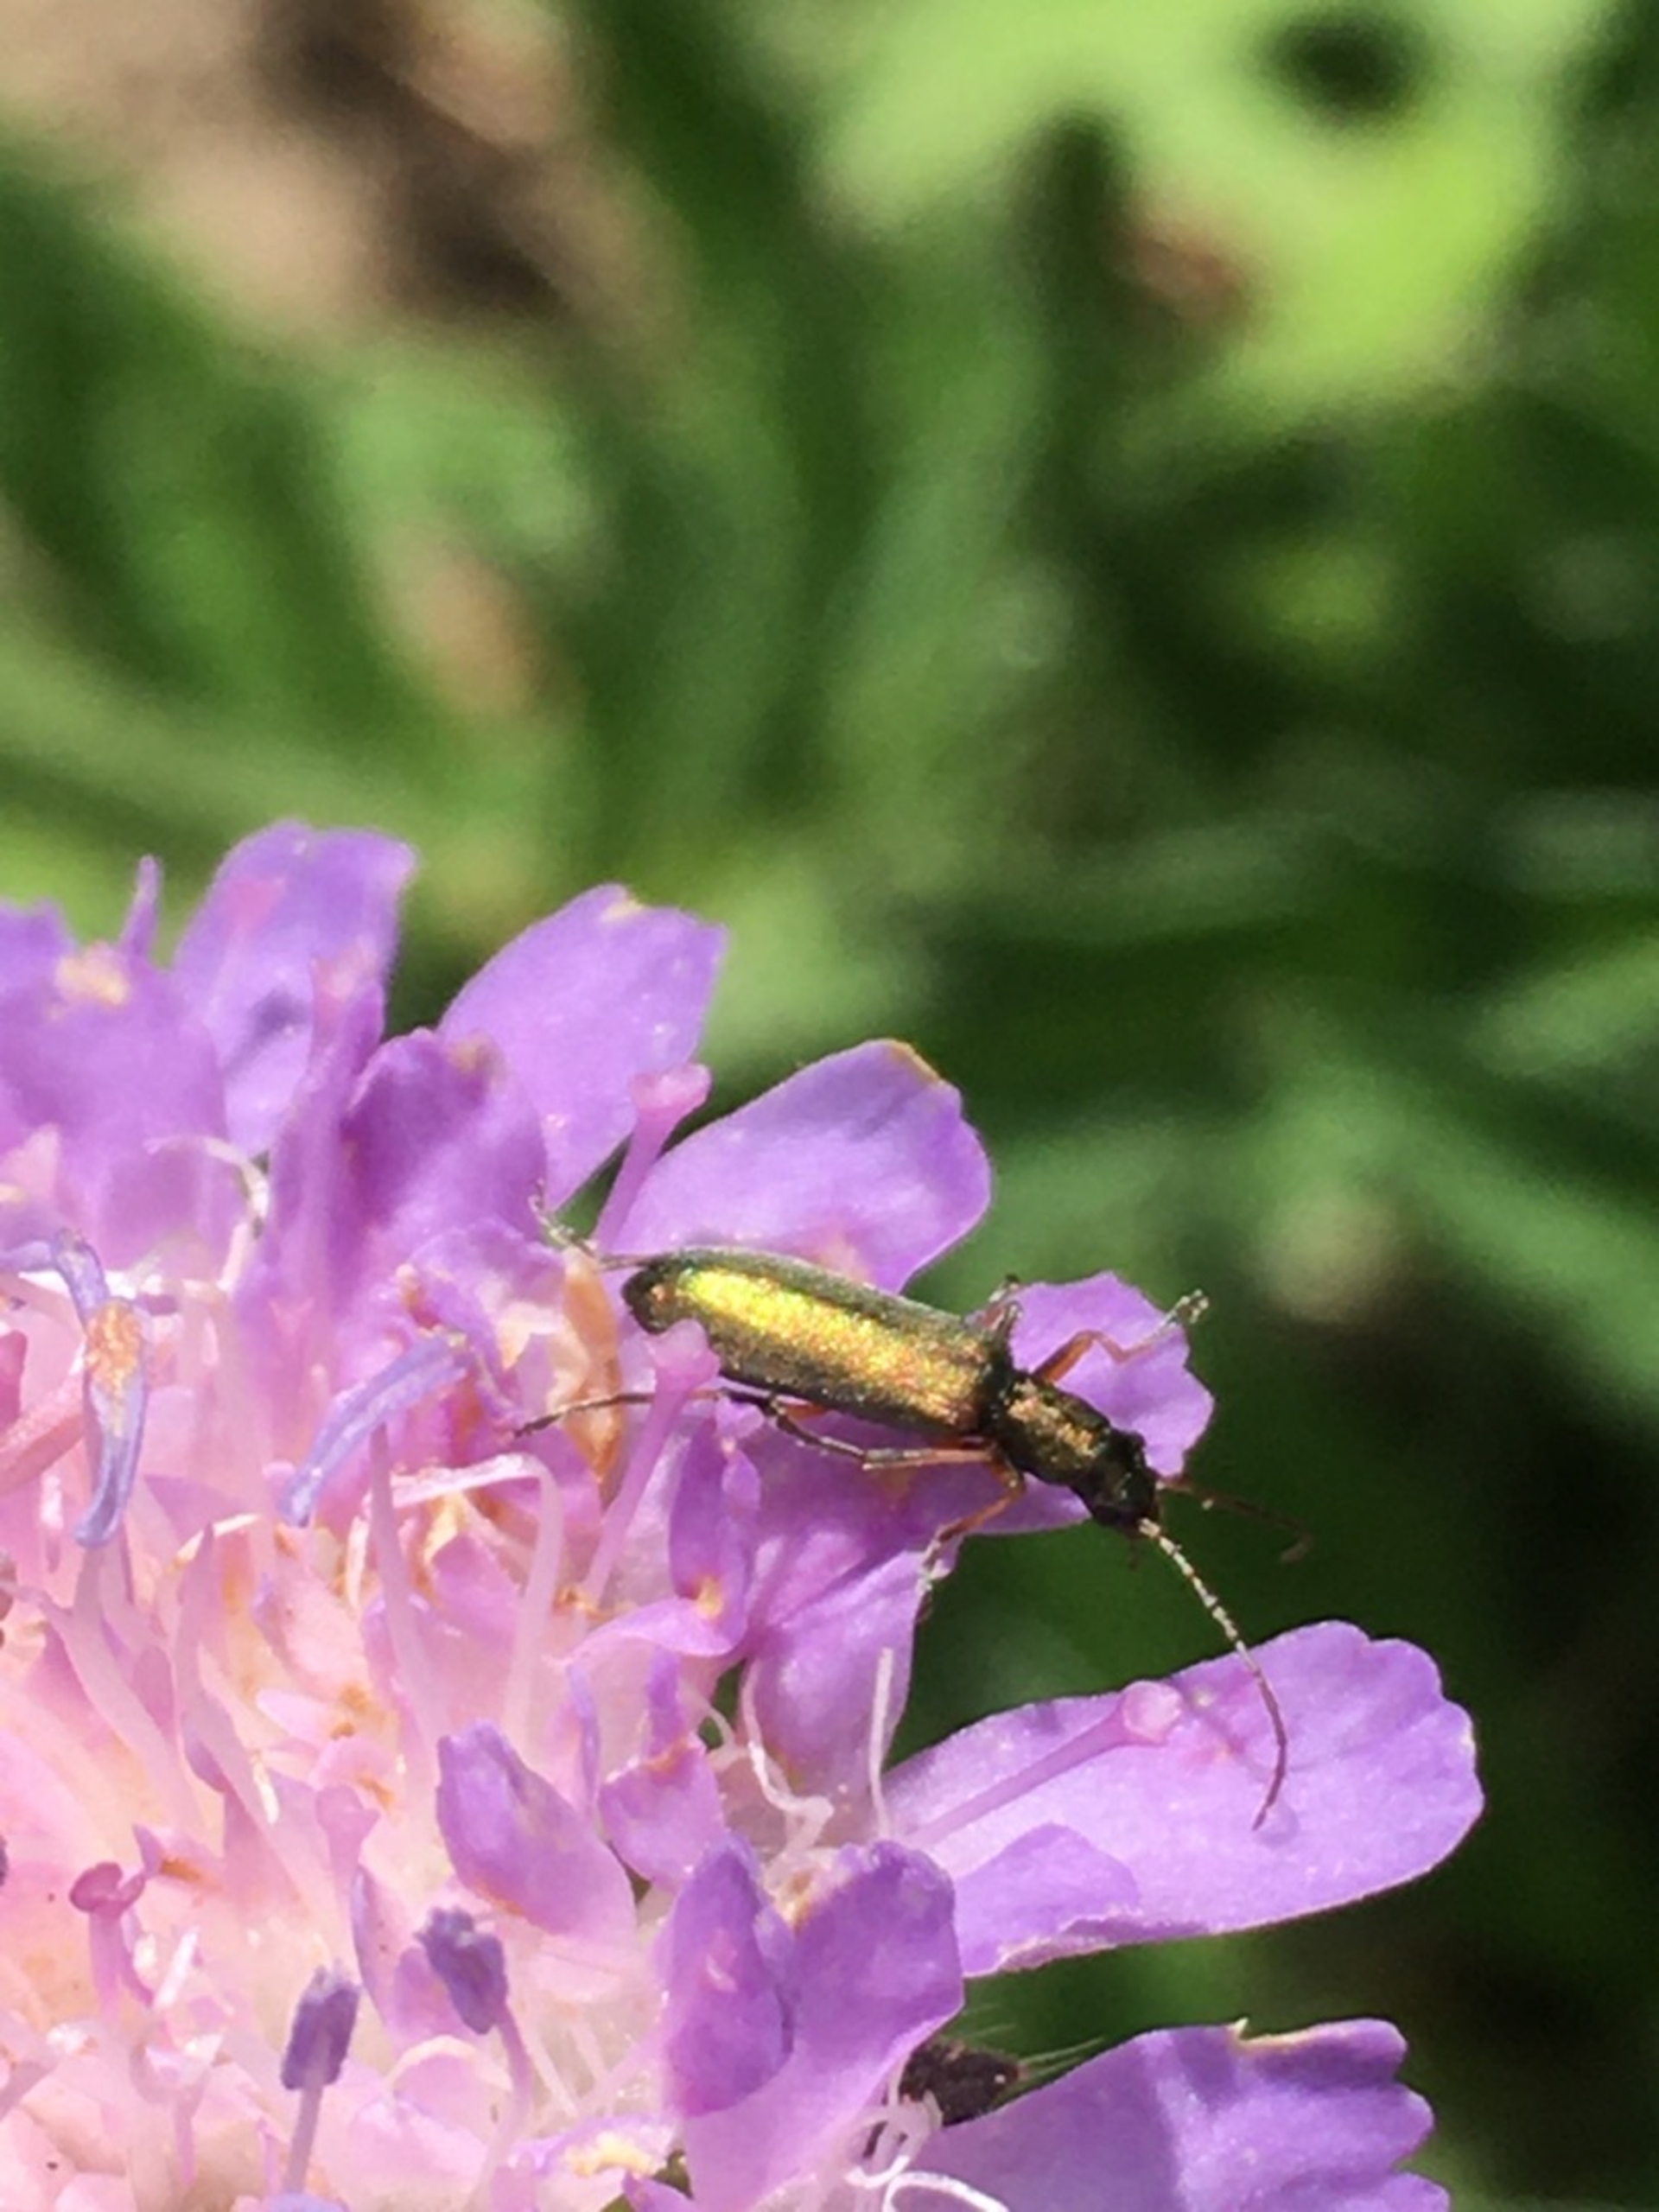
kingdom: Animalia
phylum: Arthropoda
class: Insecta
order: Coleoptera
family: Oedemeridae
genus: Chrysanthia
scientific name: Chrysanthia geniculata
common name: Grøn solbille
